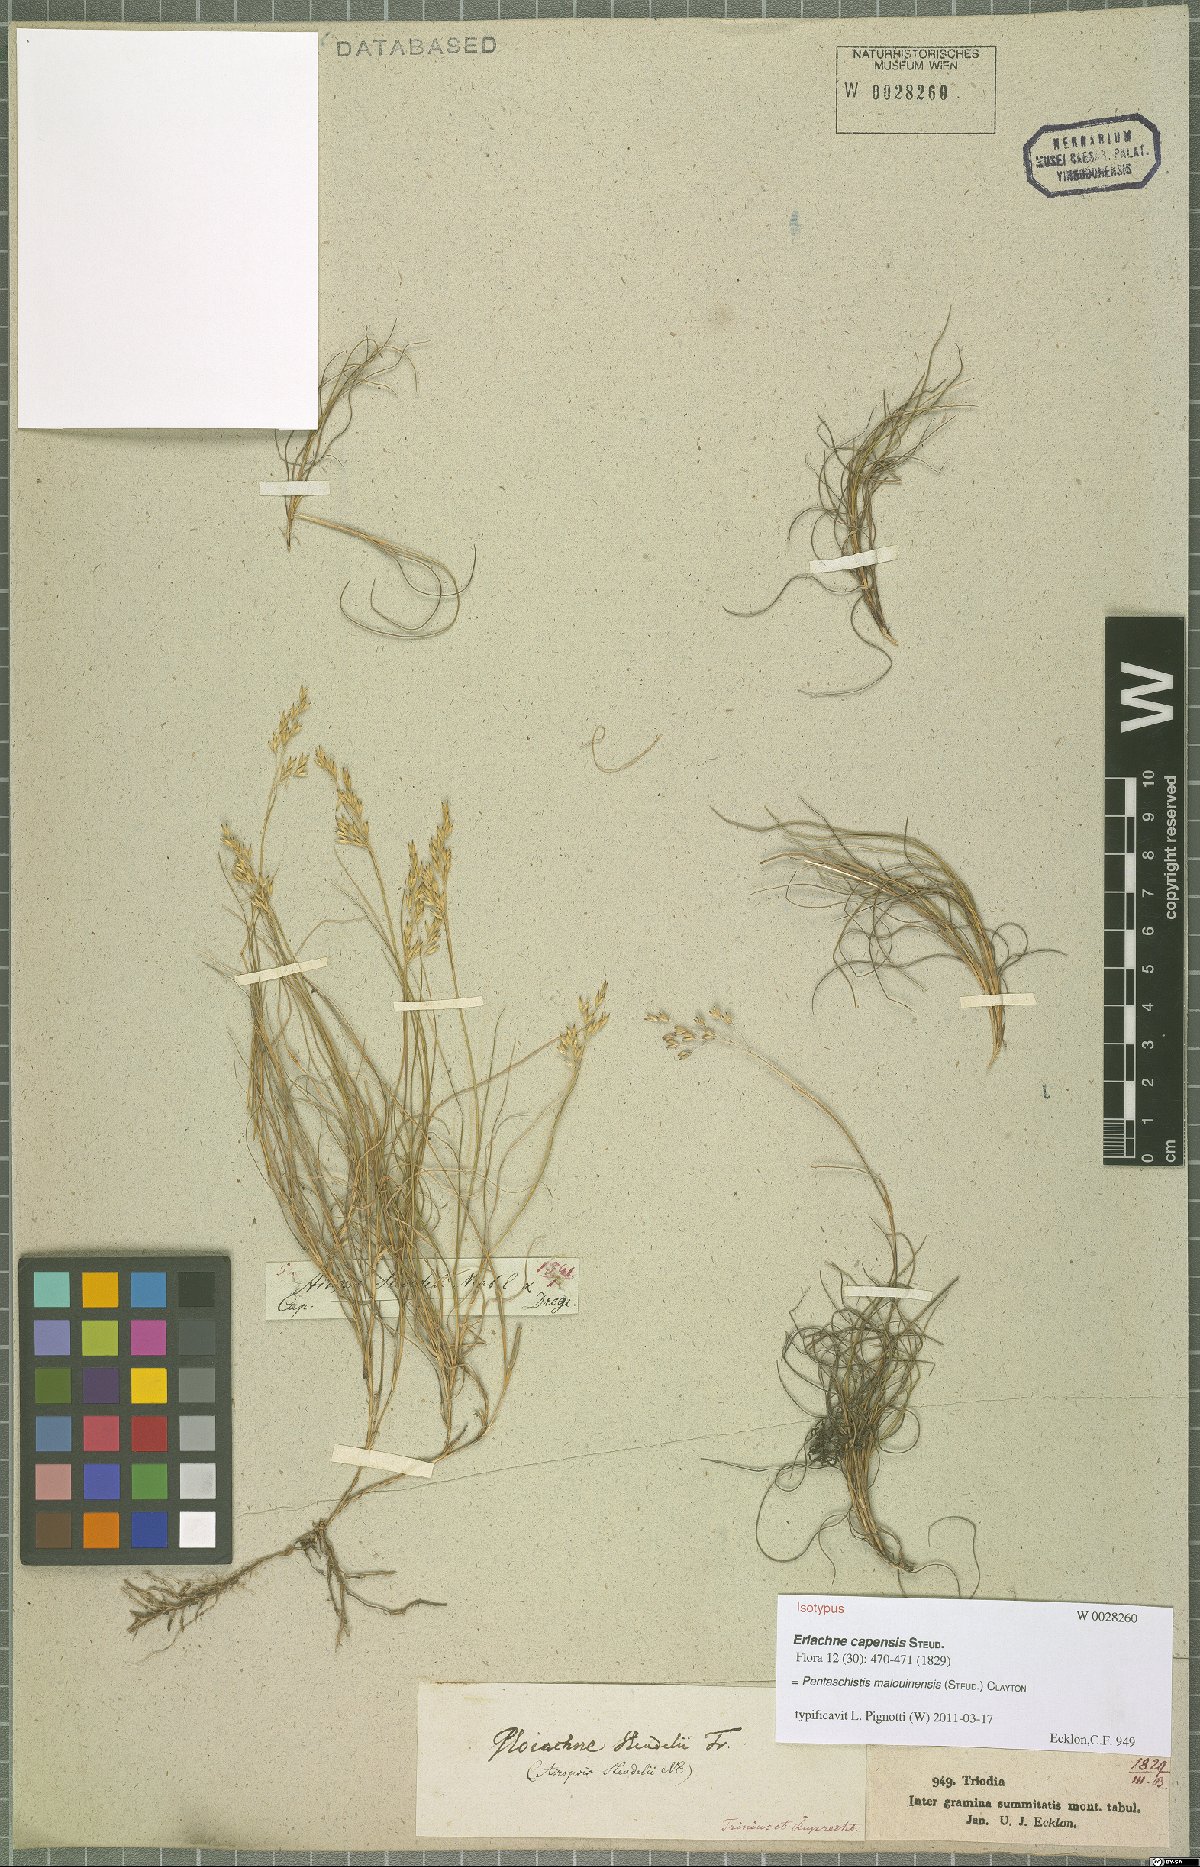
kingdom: Plantae
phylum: Tracheophyta
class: Liliopsida
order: Poales
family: Poaceae
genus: Pentameris
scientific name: Pentameris malouinensis
